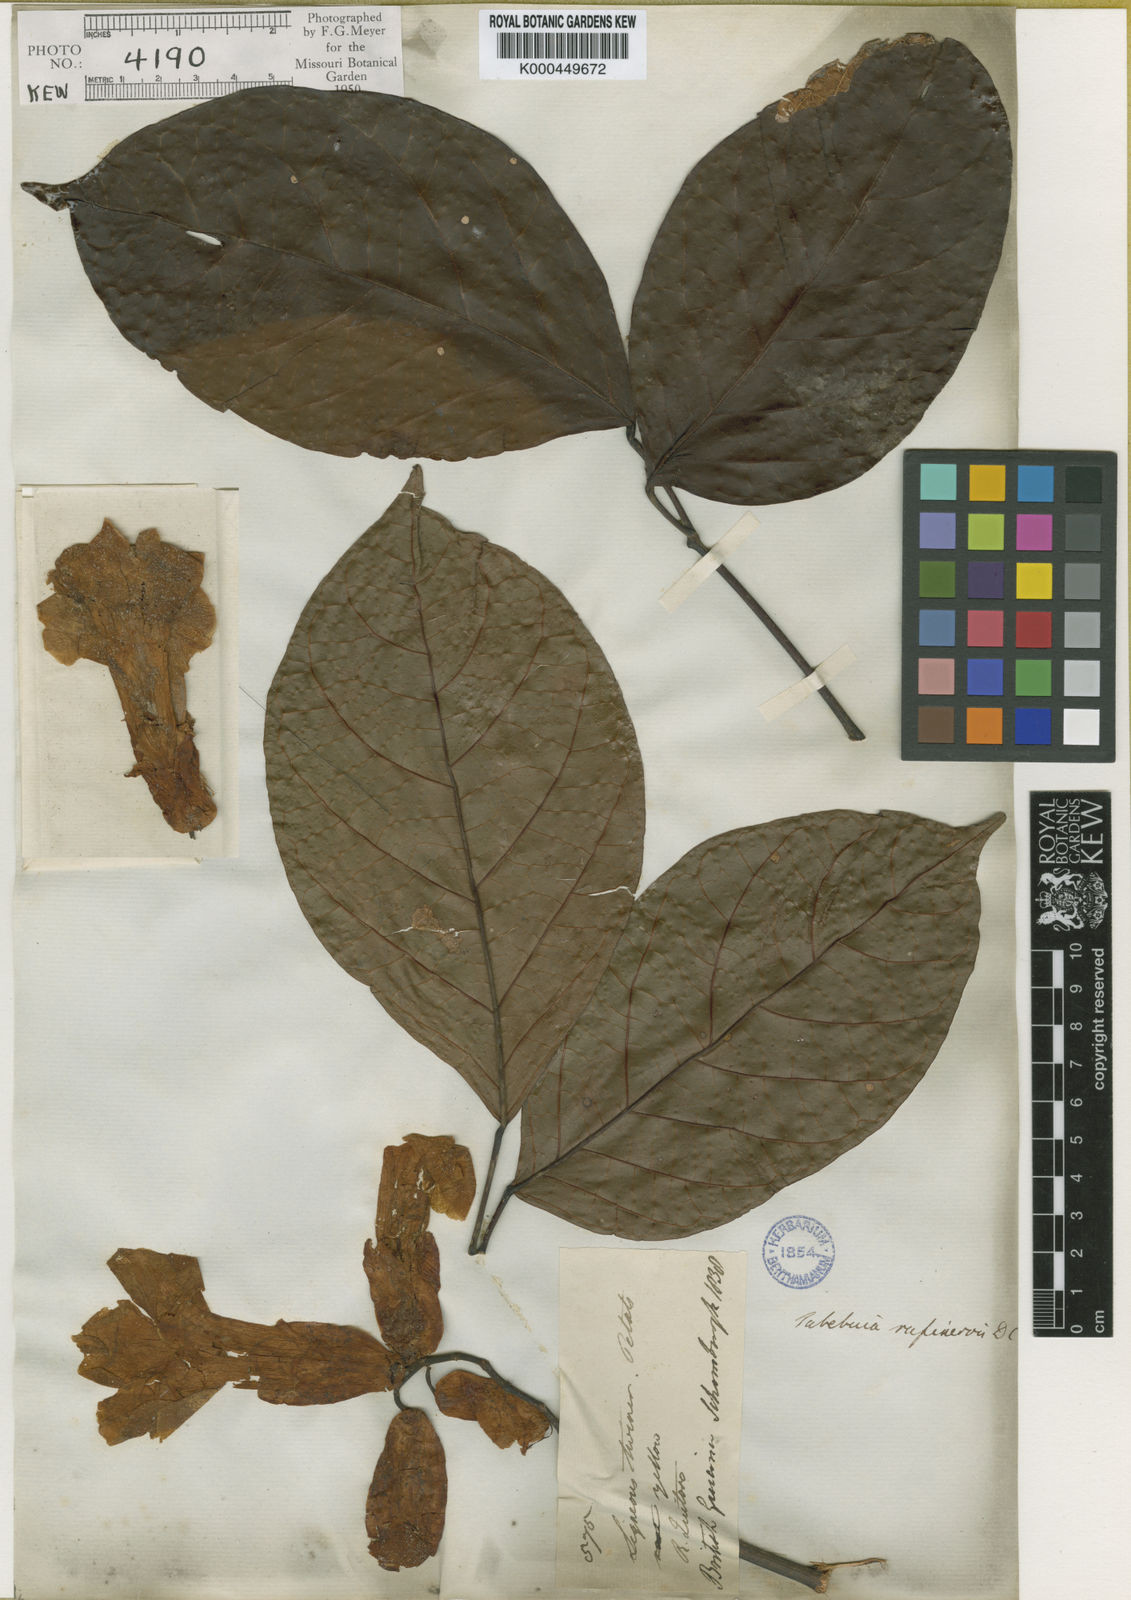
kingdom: Plantae
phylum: Tracheophyta
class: Magnoliopsida
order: Lamiales
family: Bignoniaceae
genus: Callichlamys
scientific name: Callichlamys latifolia
